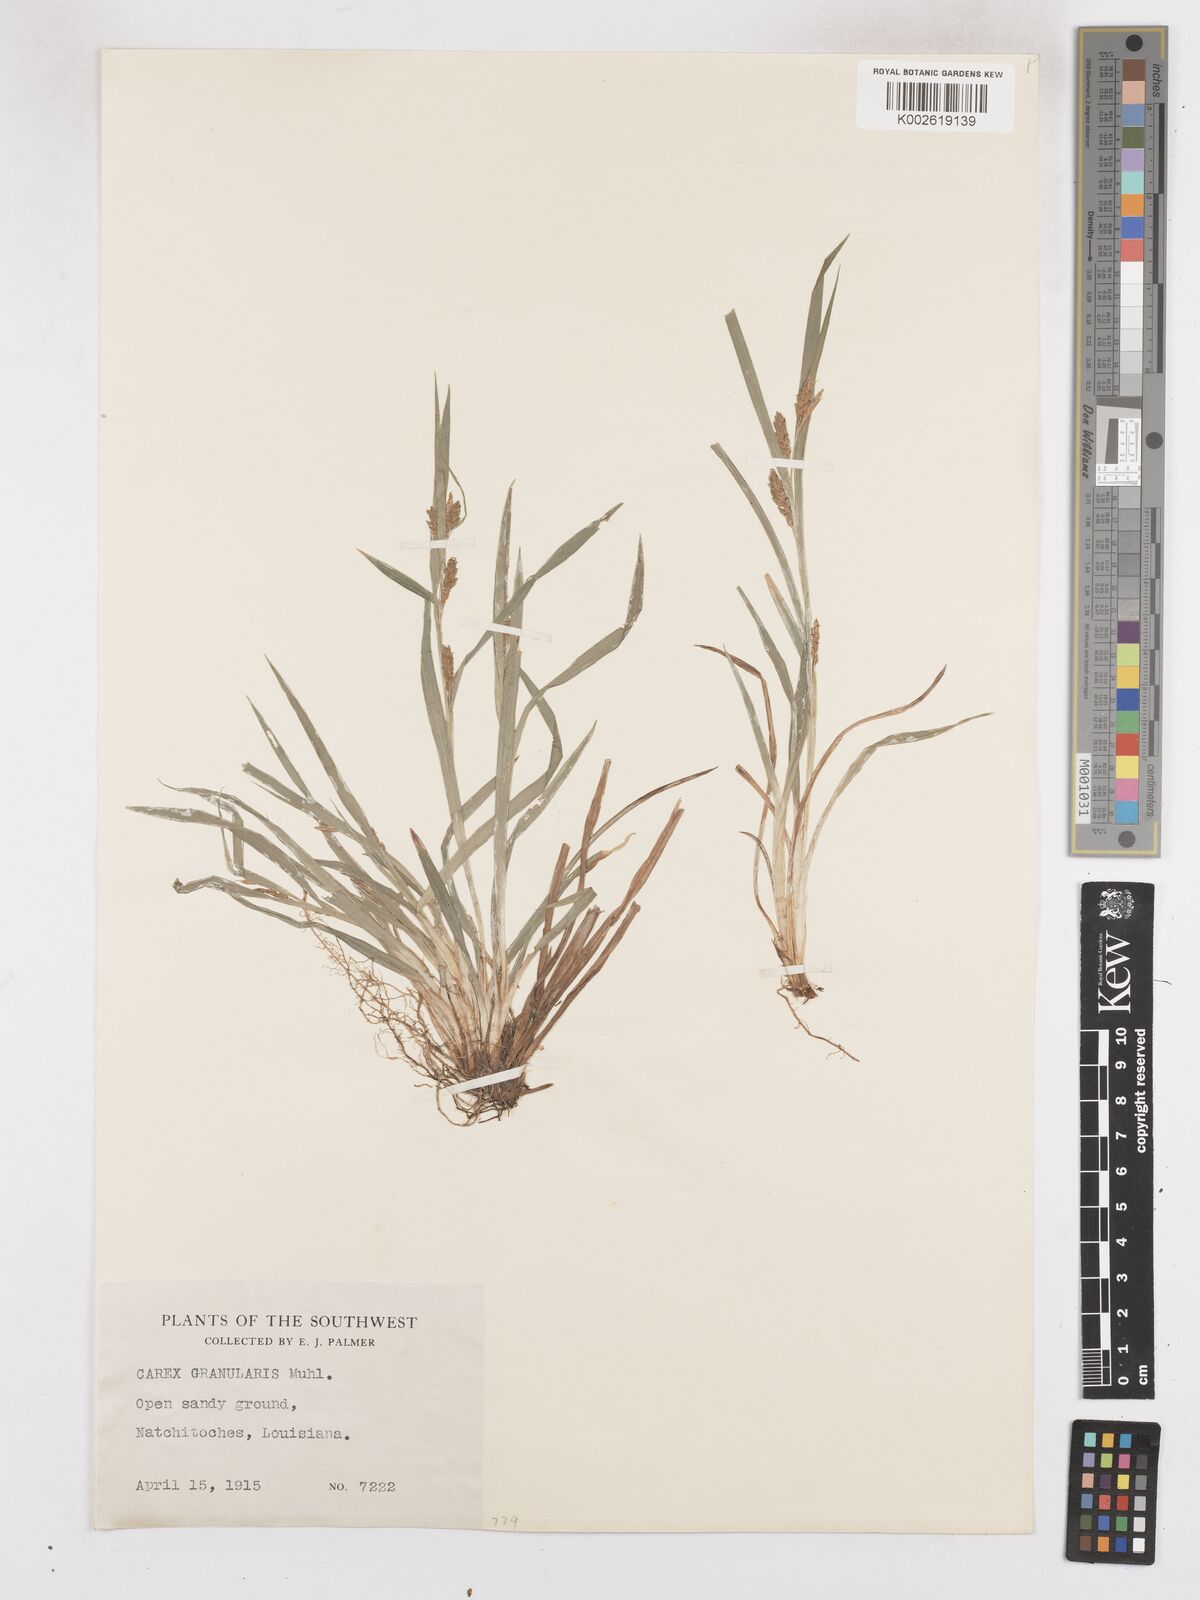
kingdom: Plantae
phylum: Tracheophyta
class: Liliopsida
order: Poales
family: Cyperaceae
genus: Carex
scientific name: Carex granularis
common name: Granular sedge
